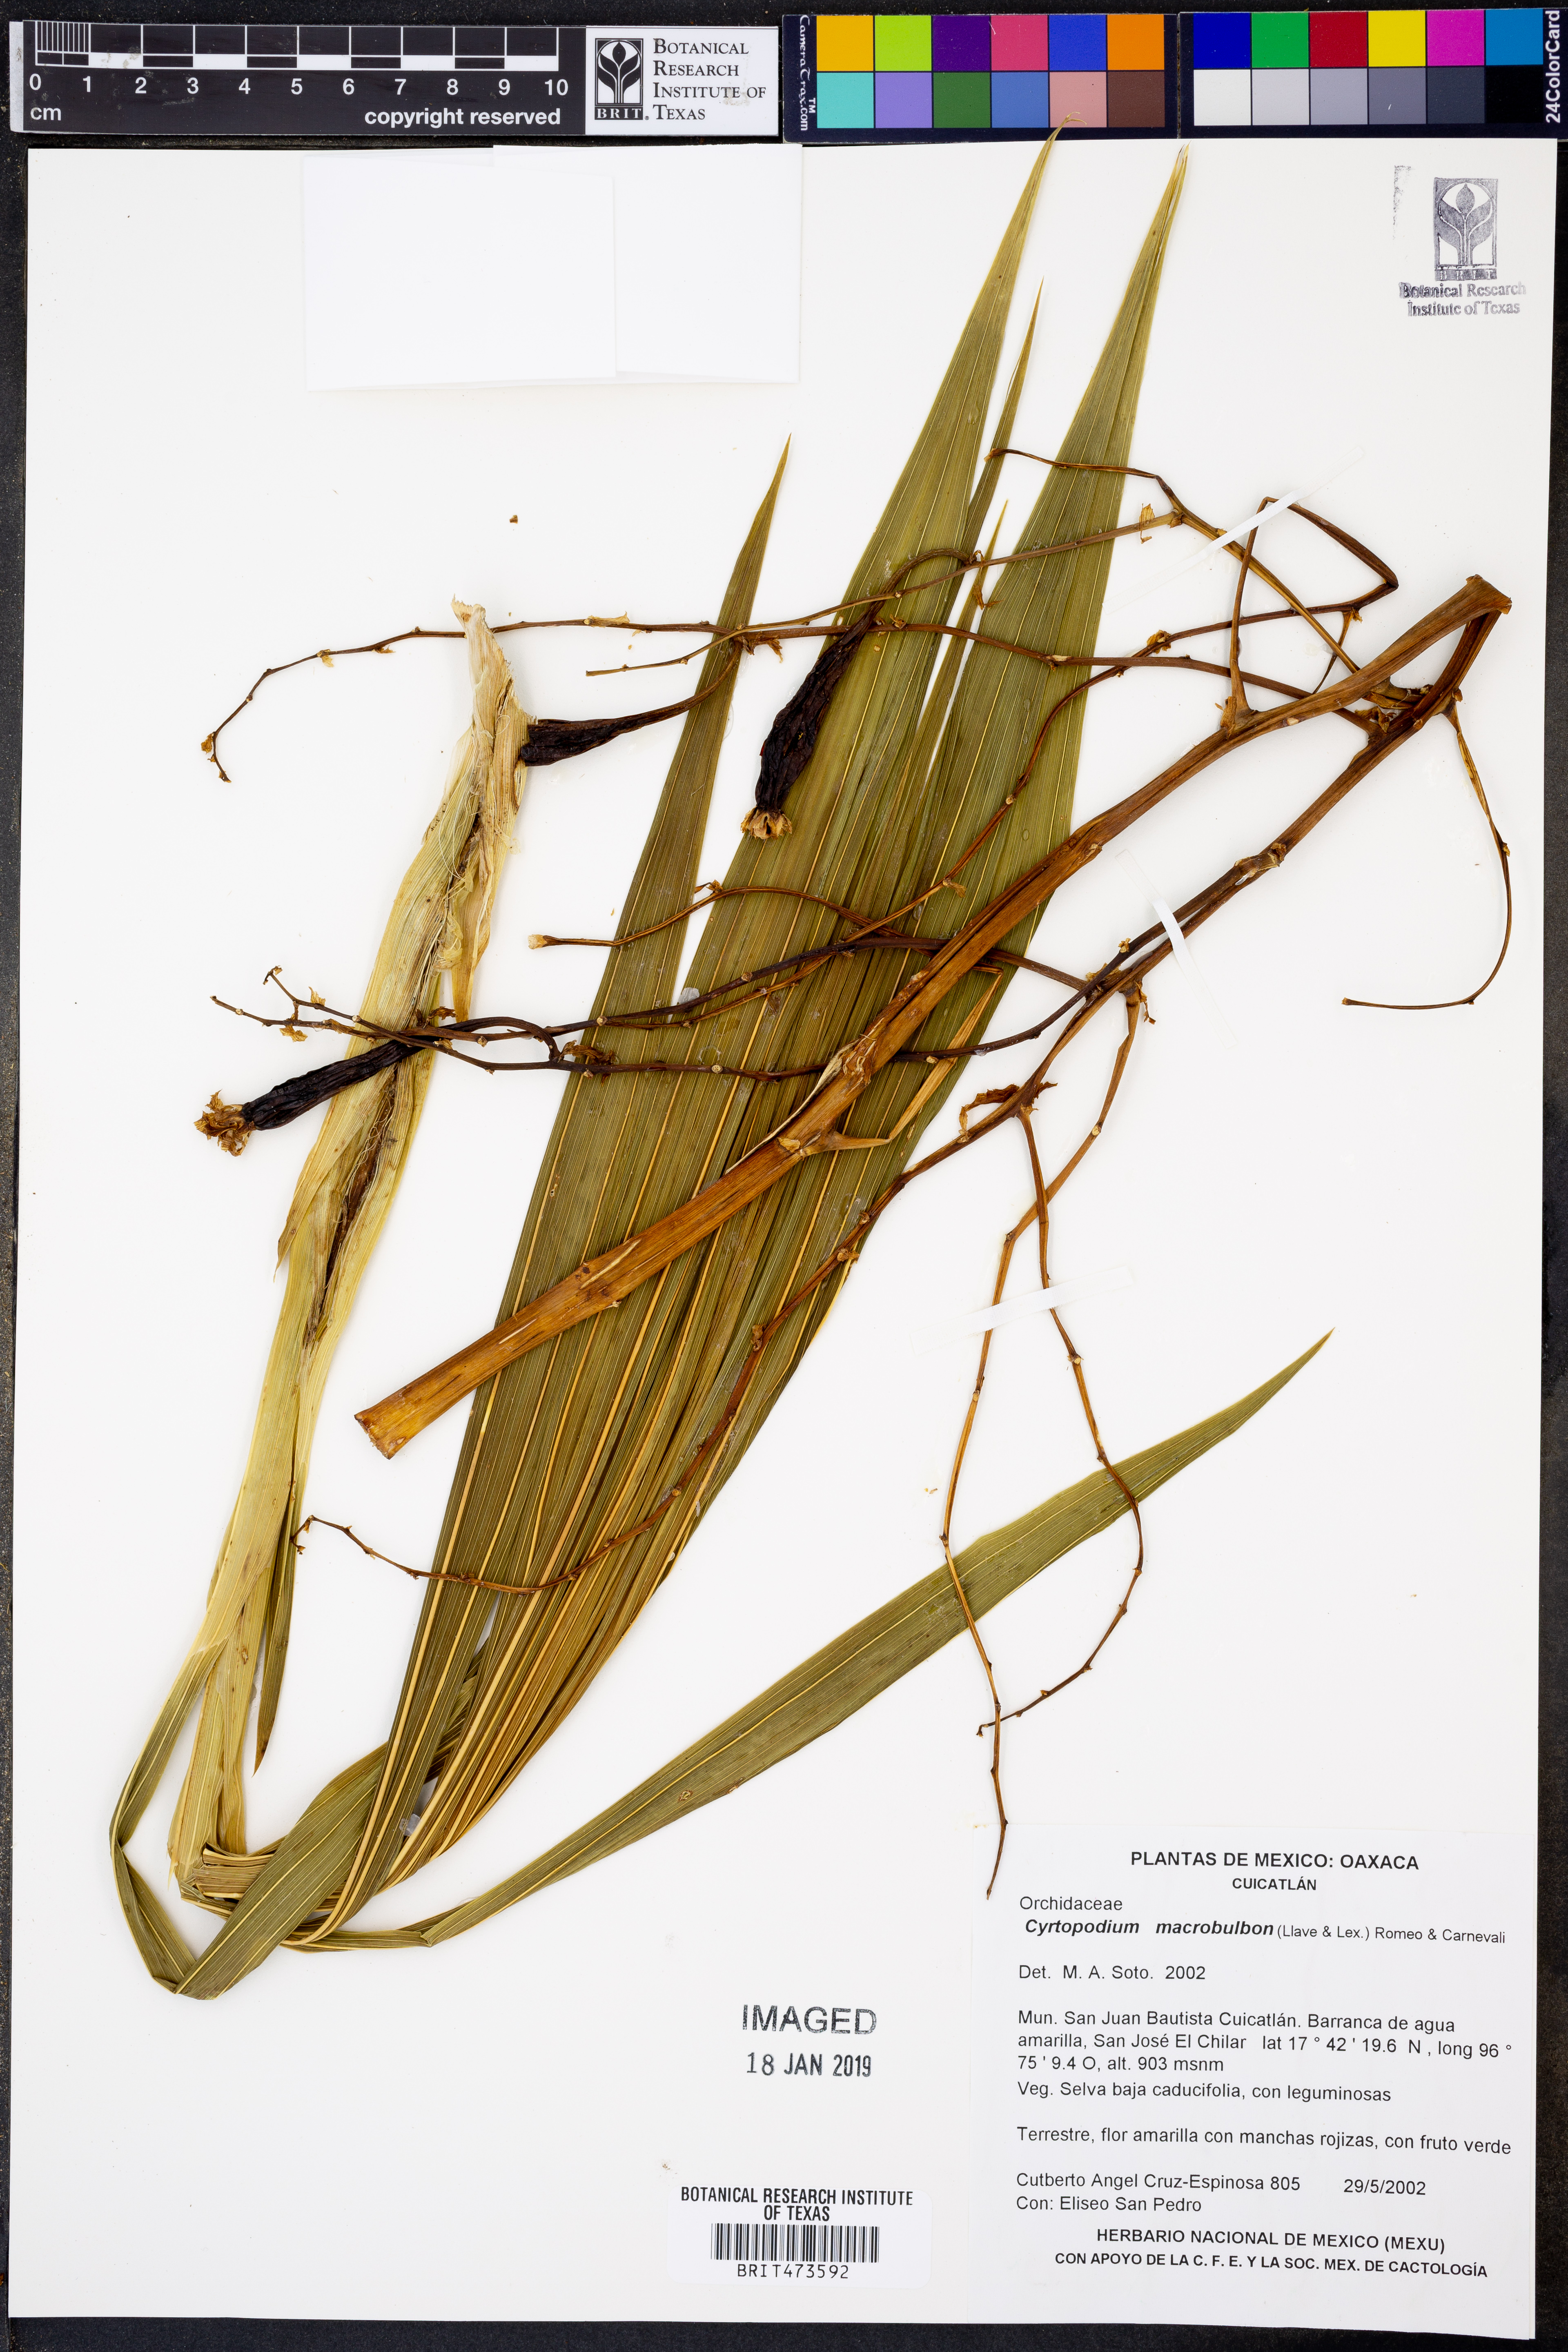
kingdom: Plantae
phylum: Tracheophyta
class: Liliopsida
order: Asparagales
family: Orchidaceae
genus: Cyrtopodium
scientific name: Cyrtopodium macrobulbon
